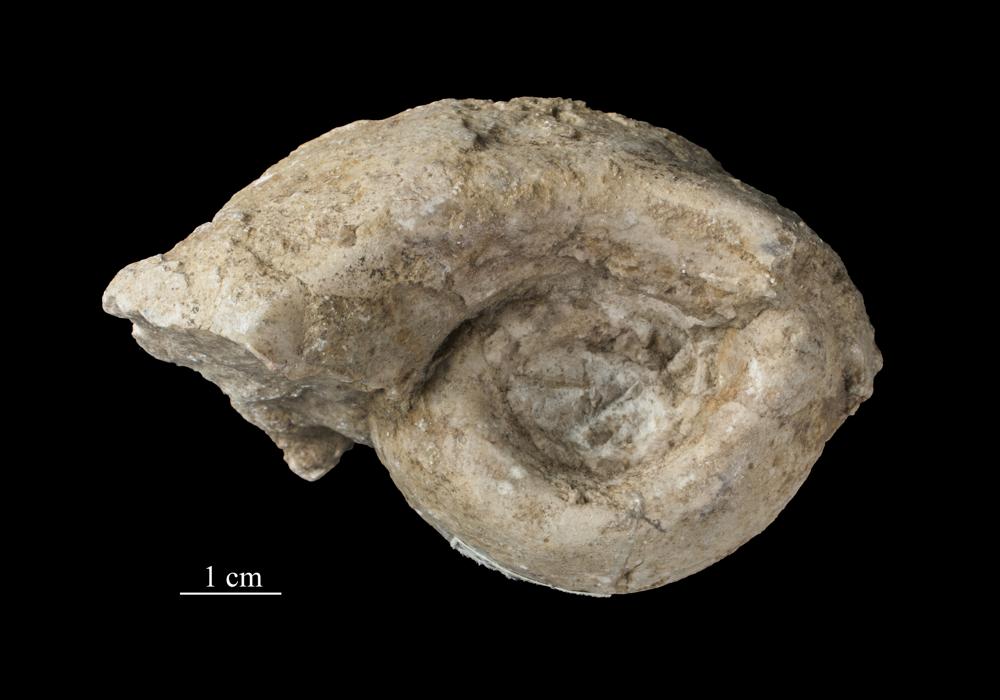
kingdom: Animalia
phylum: Mollusca
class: Gastropoda
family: Bellerophontidae
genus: Bellerophon
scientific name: Bellerophon
